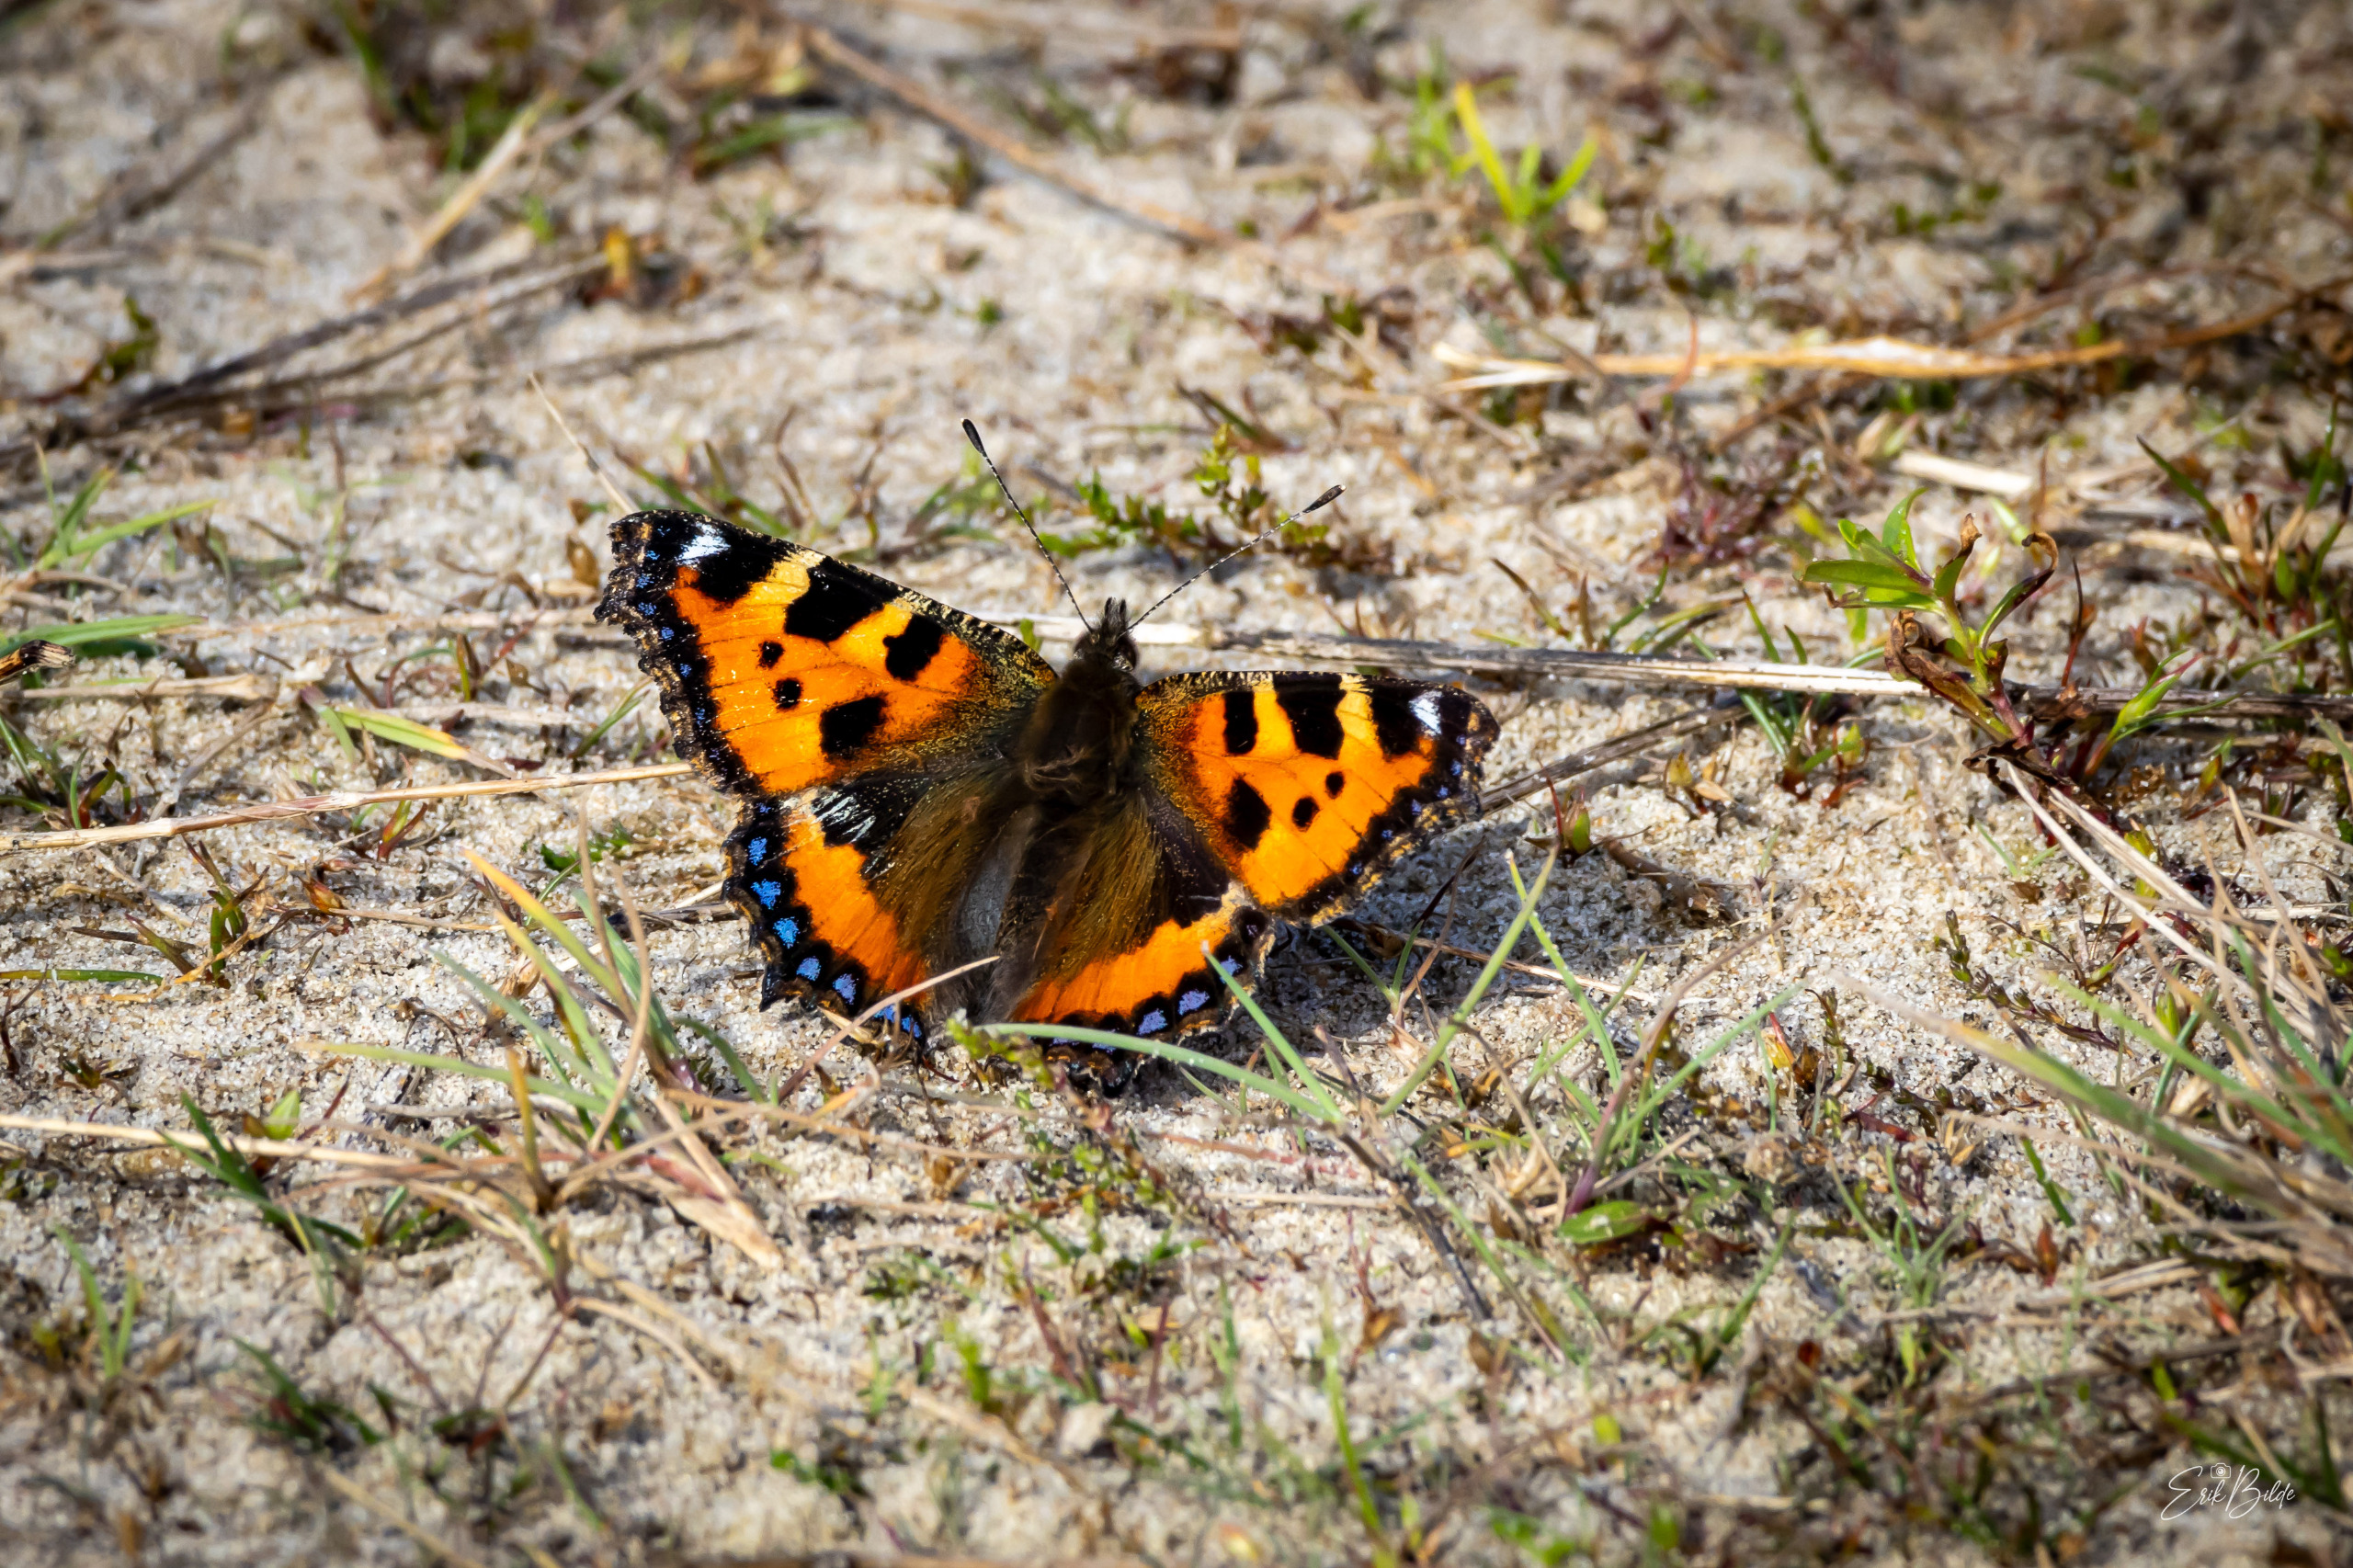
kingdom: Animalia
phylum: Arthropoda
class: Insecta
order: Lepidoptera
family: Nymphalidae
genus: Aglais
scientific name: Aglais urticae
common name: Nældens takvinge
